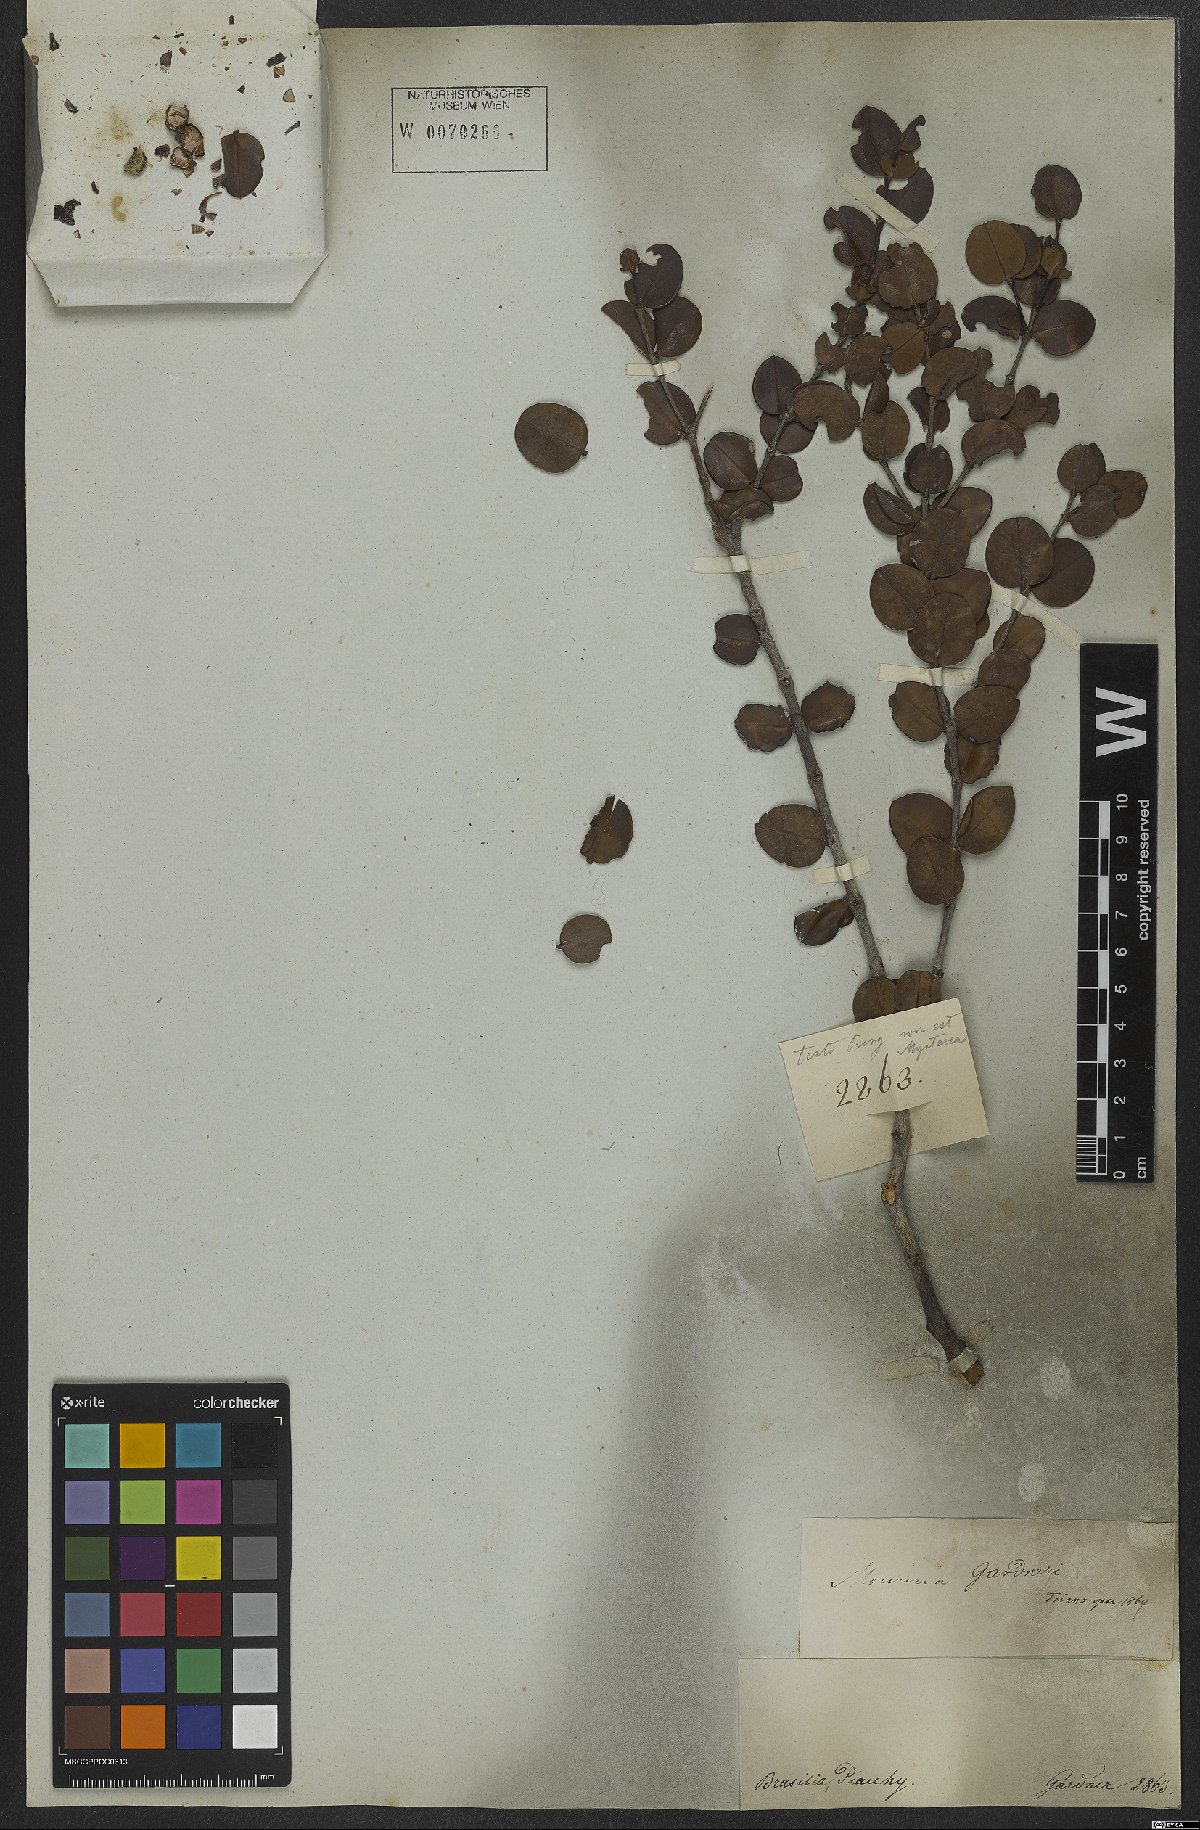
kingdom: Plantae
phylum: Tracheophyta
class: Magnoliopsida
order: Myrtales
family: Melastomataceae
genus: Mouriri
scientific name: Mouriri gardneri
